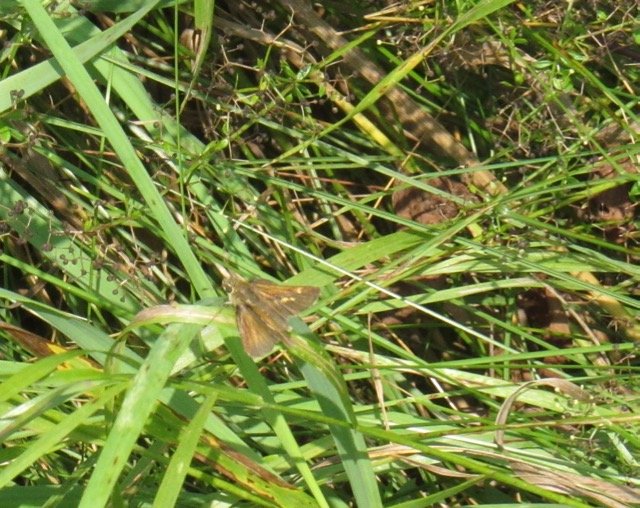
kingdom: Animalia
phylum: Arthropoda
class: Insecta
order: Lepidoptera
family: Hesperiidae
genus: Polites
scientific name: Polites themistocles
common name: Tawny-edged Skipper
